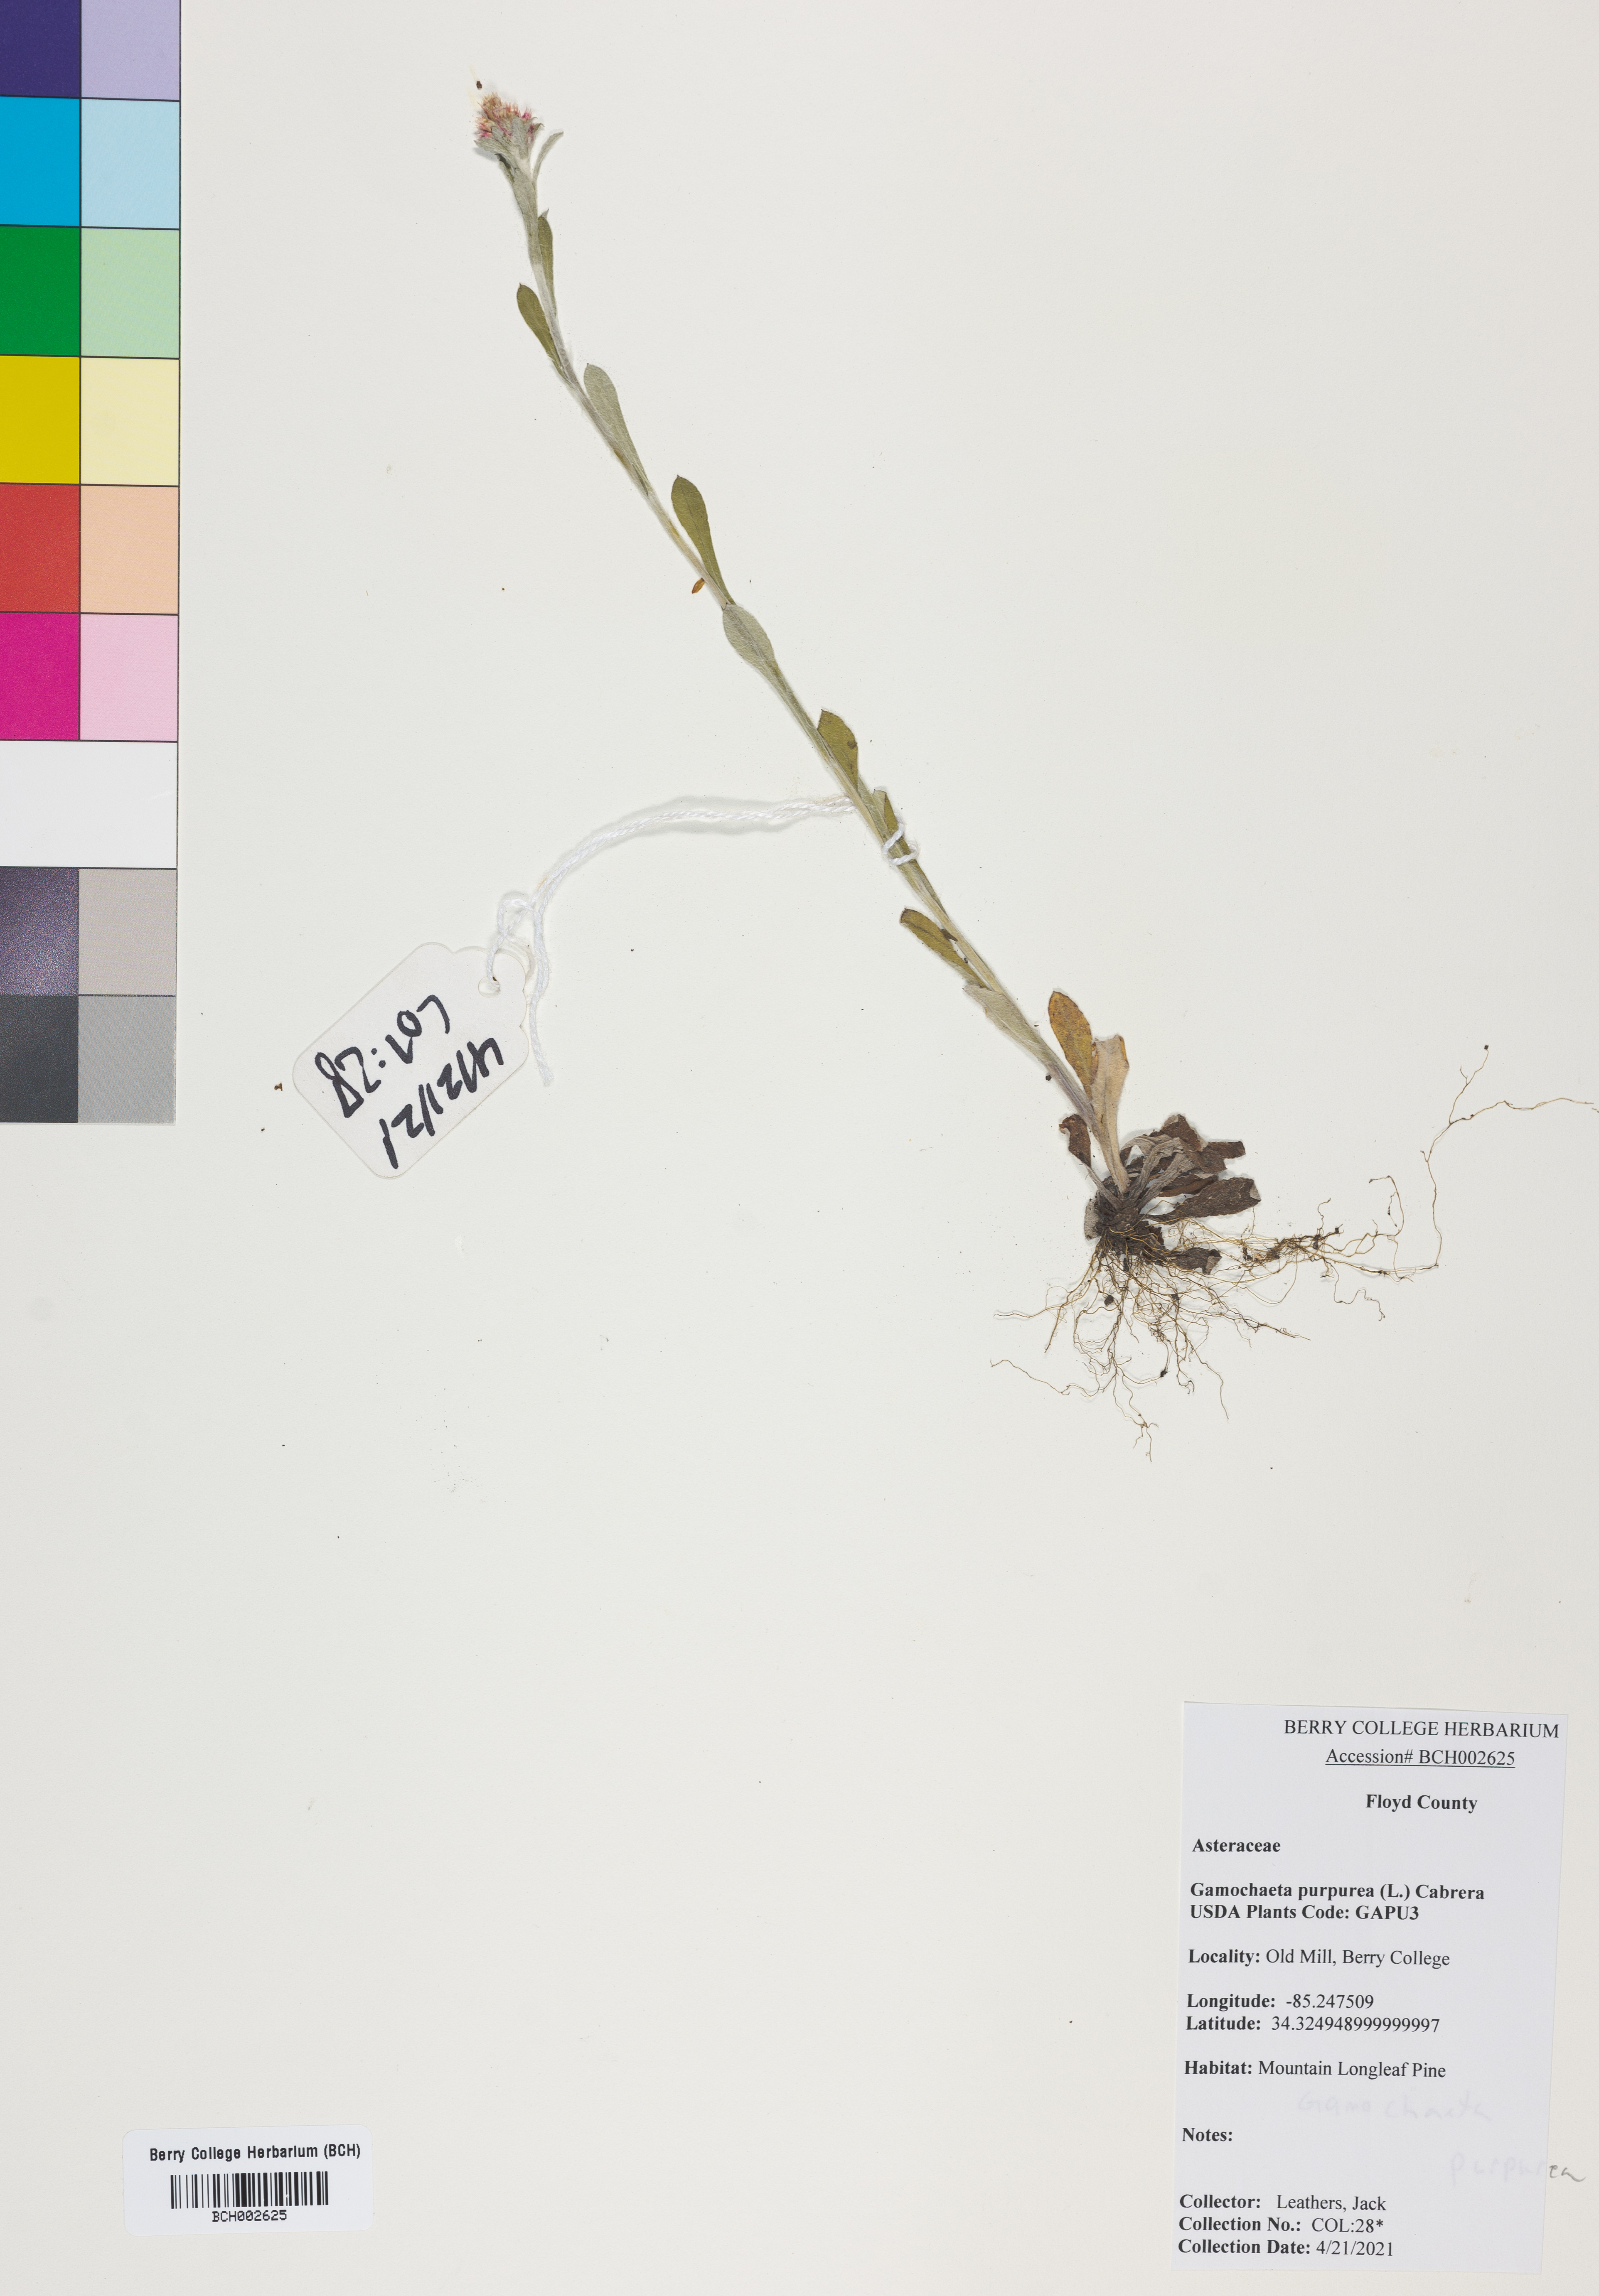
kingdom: Plantae
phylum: Tracheophyta
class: Magnoliopsida
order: Asterales
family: Asteraceae
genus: Gamochaeta
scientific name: Gamochaeta purpurea
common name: Purple cudweed
